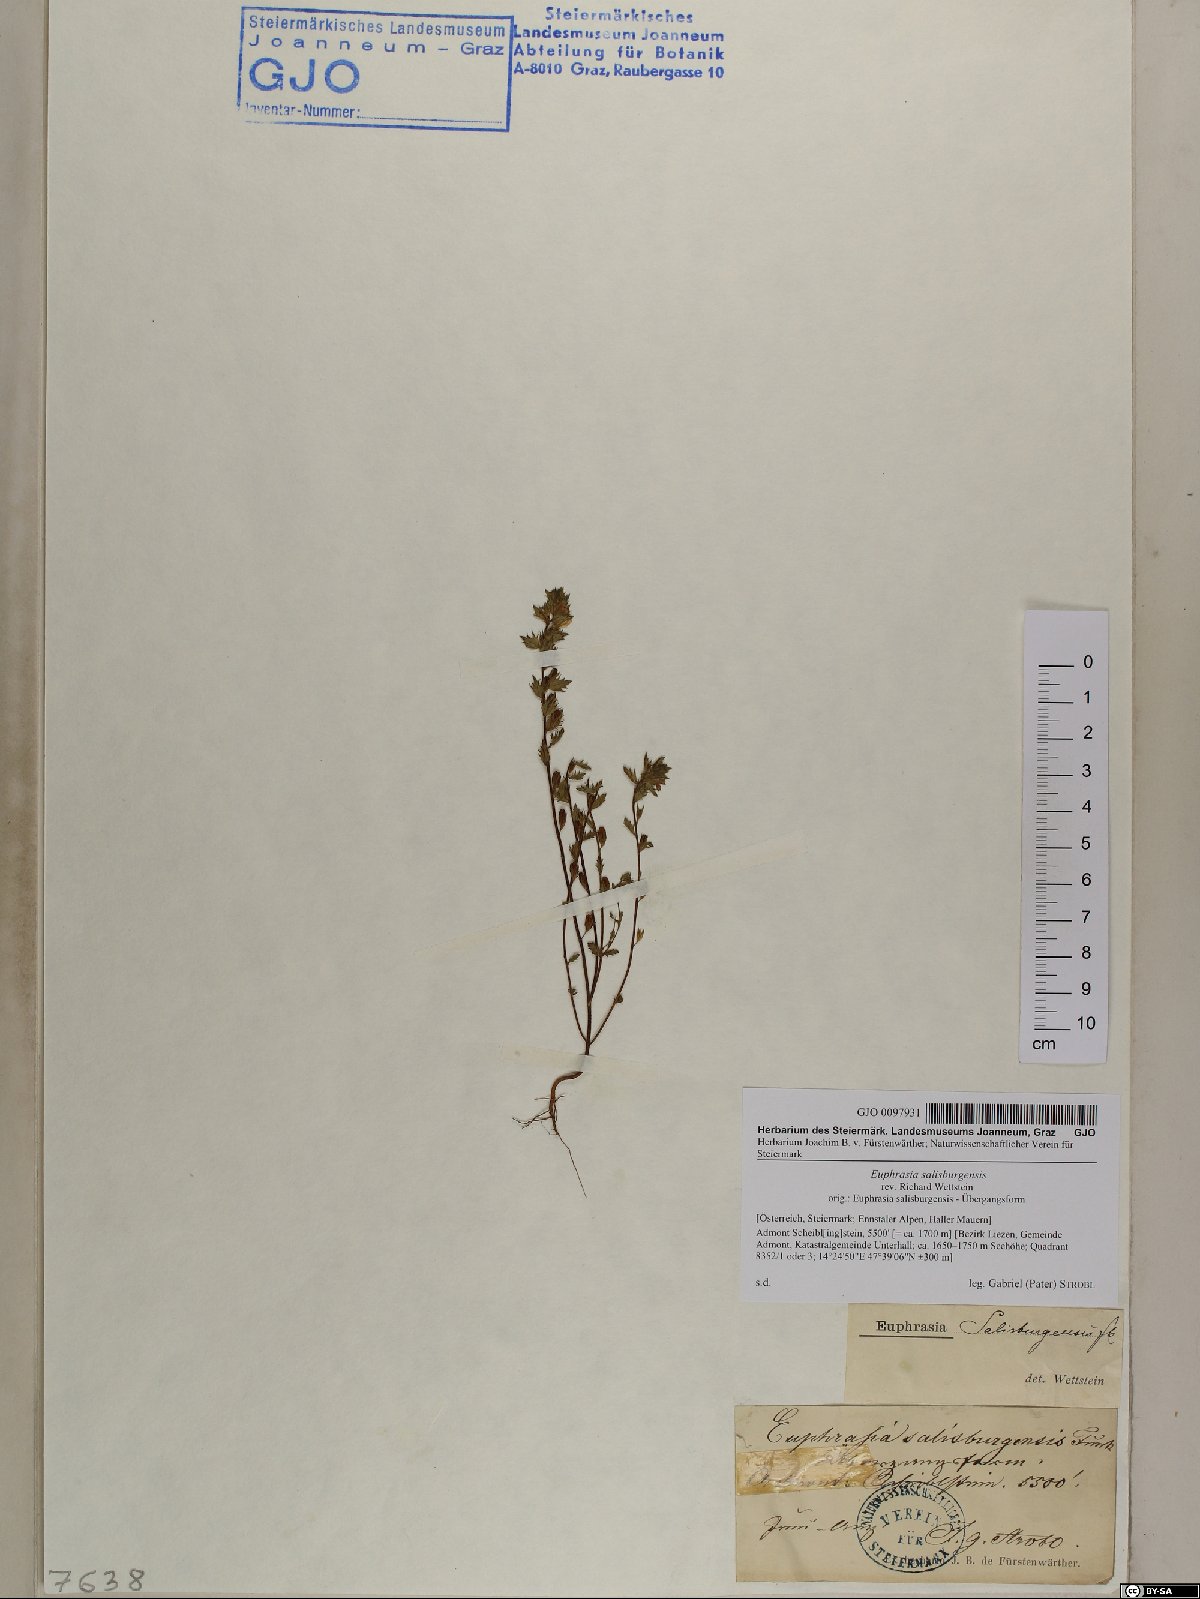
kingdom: Plantae
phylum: Tracheophyta
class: Magnoliopsida
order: Lamiales
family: Orobanchaceae
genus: Euphrasia
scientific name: Euphrasia salisburgensis
